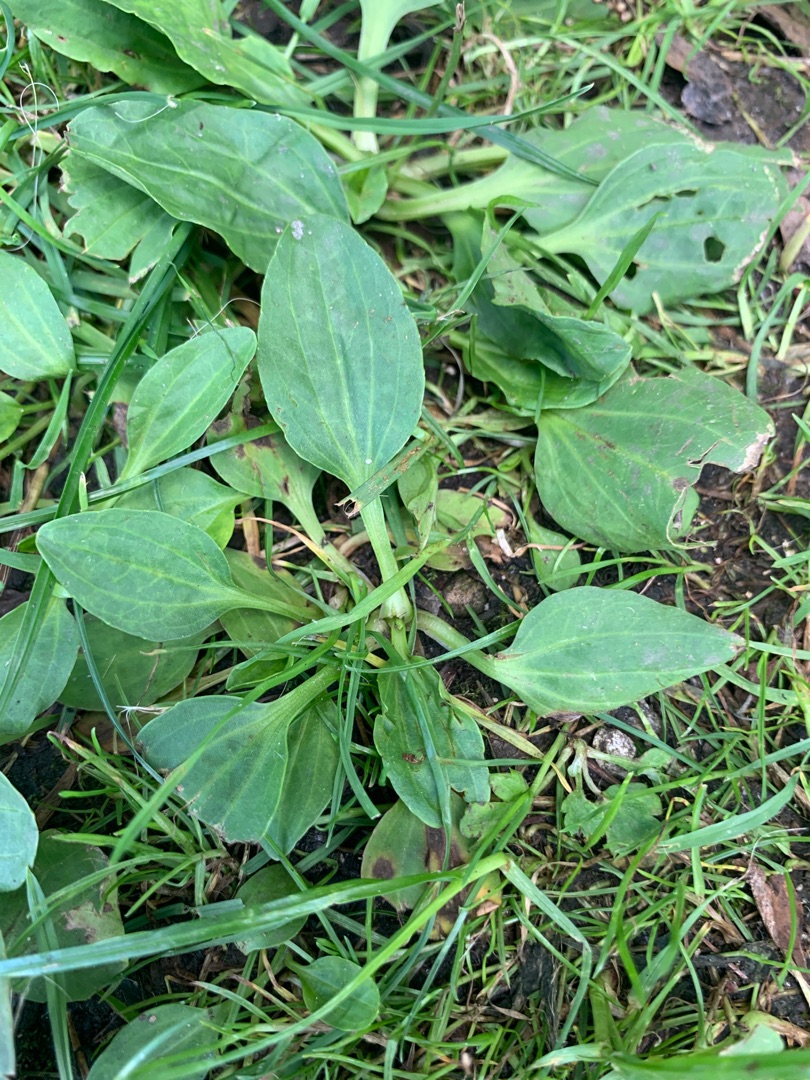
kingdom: Plantae
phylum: Tracheophyta
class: Magnoliopsida
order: Lamiales
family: Plantaginaceae
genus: Plantago
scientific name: Plantago major
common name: Glat vejbred
